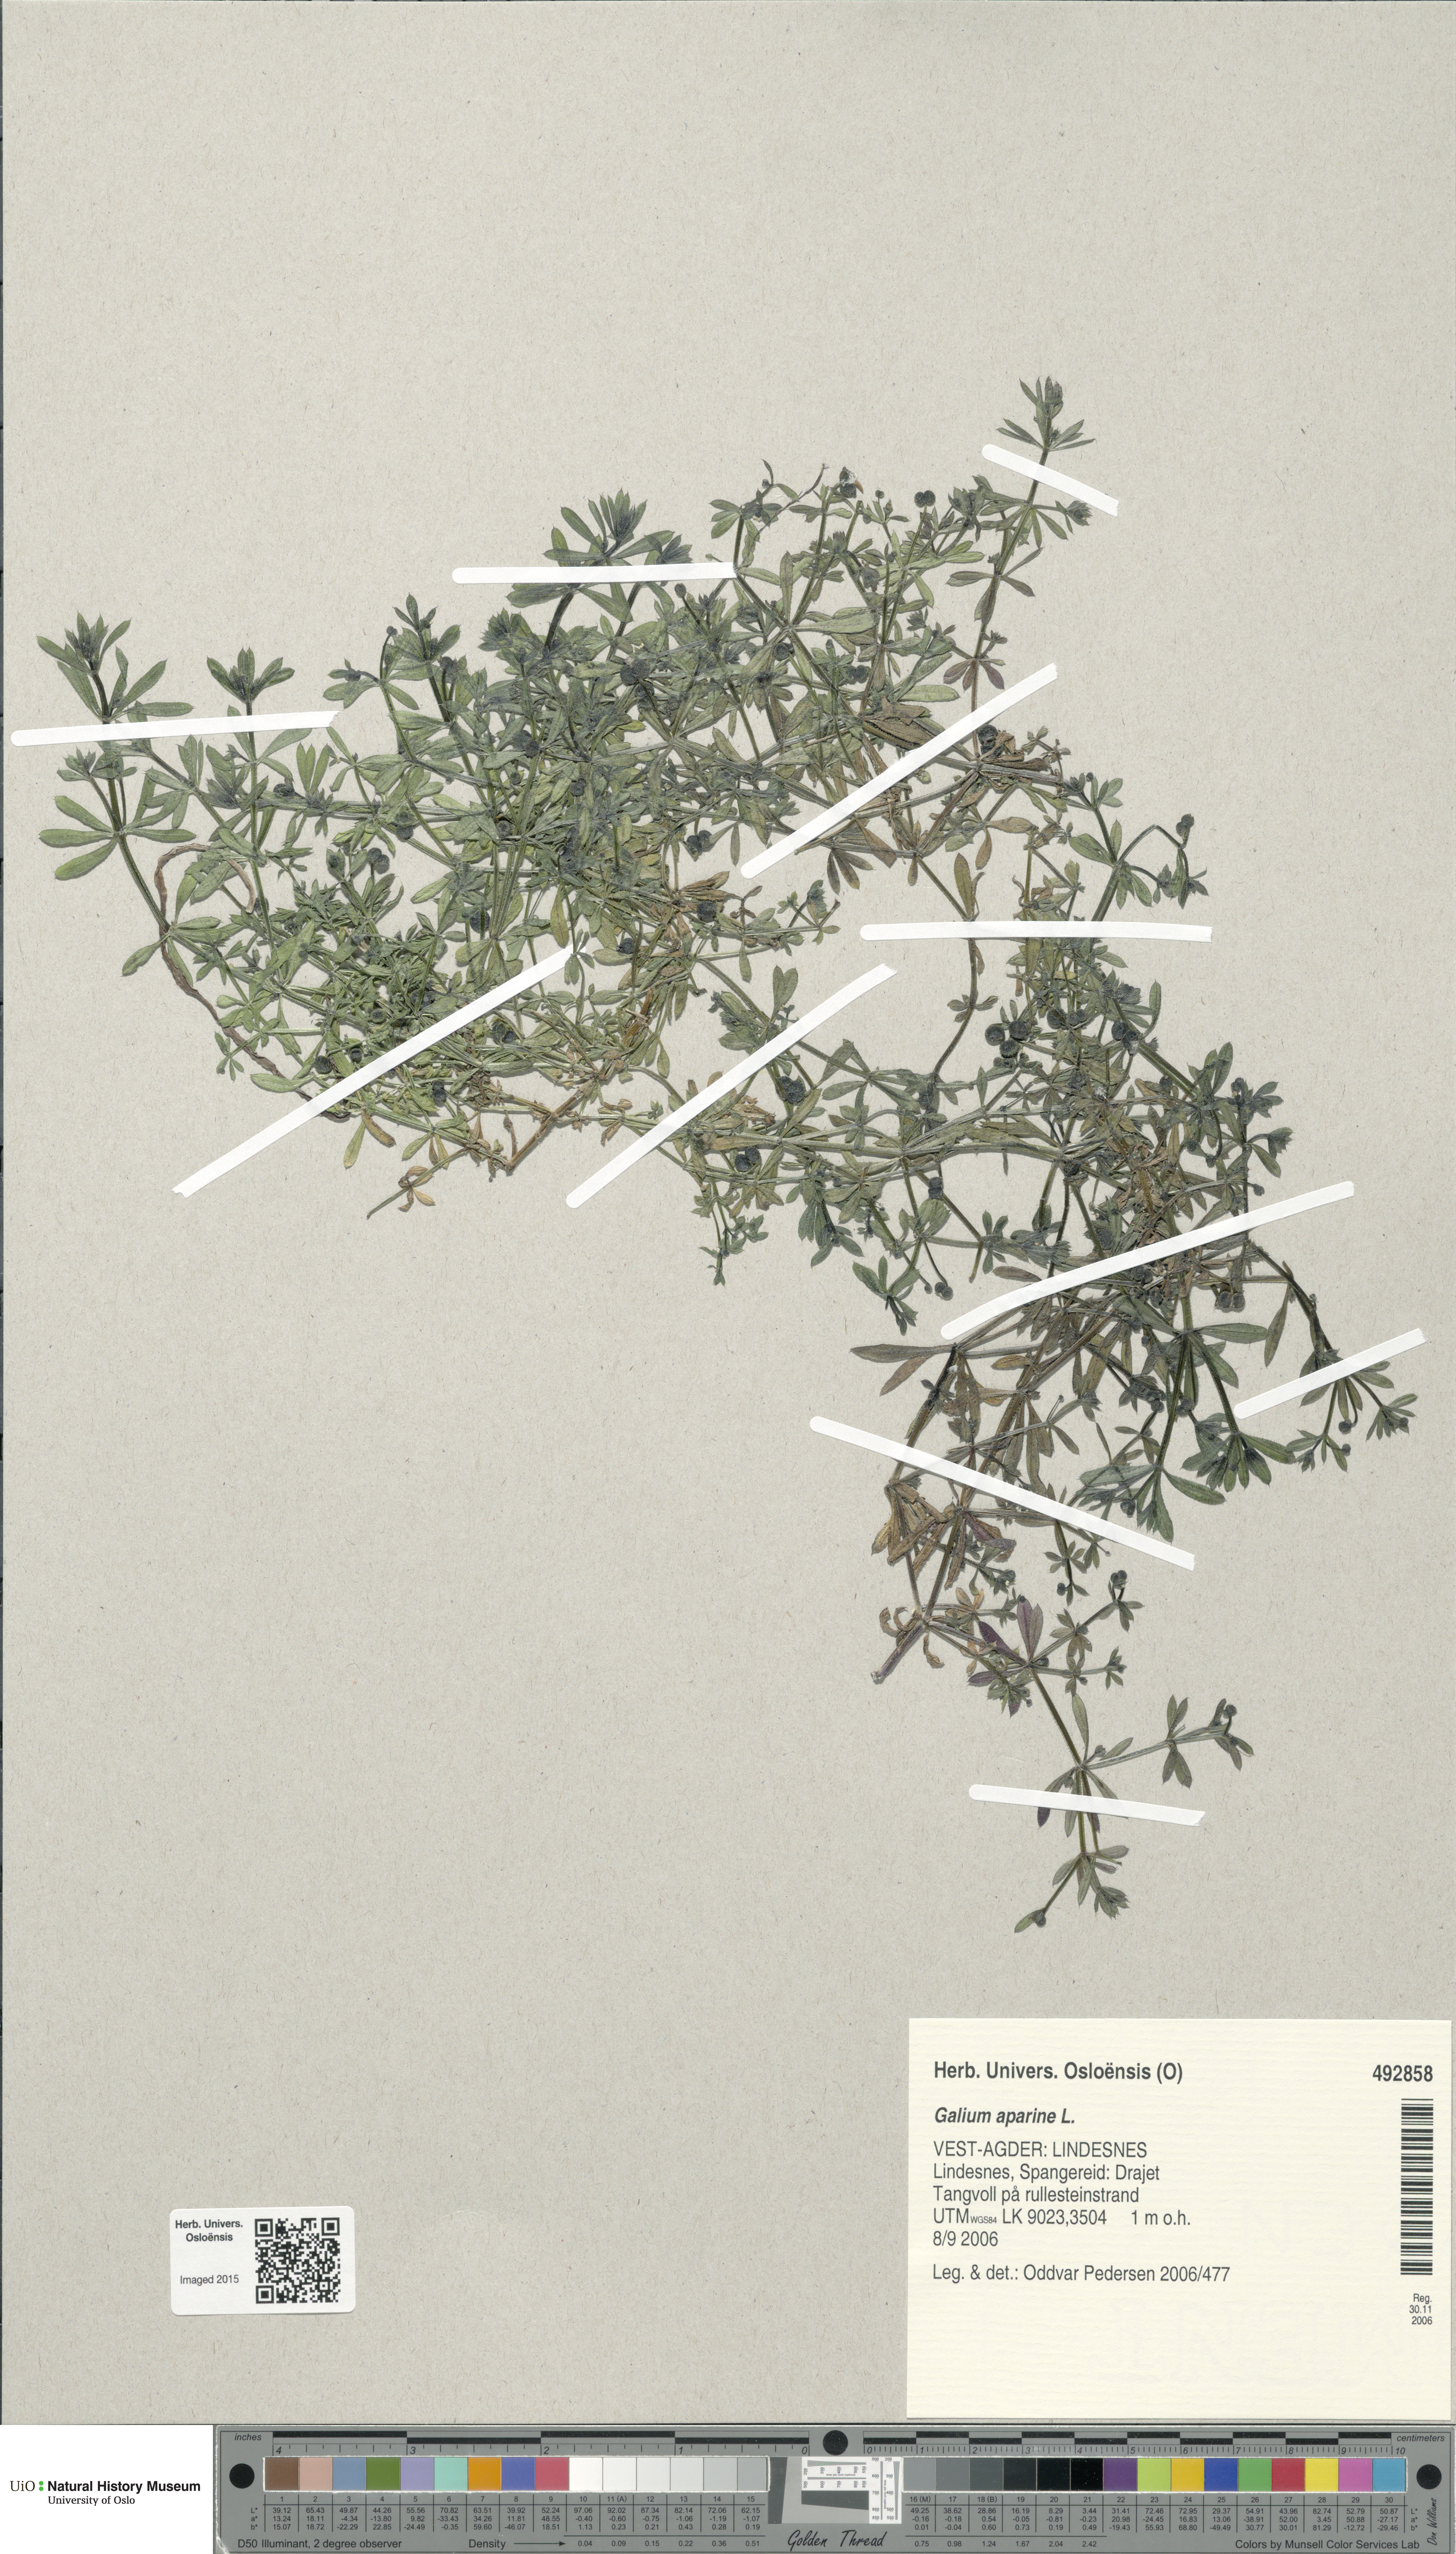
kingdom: Plantae
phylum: Tracheophyta
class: Magnoliopsida
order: Gentianales
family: Rubiaceae
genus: Galium
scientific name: Galium aparine
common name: Cleavers
